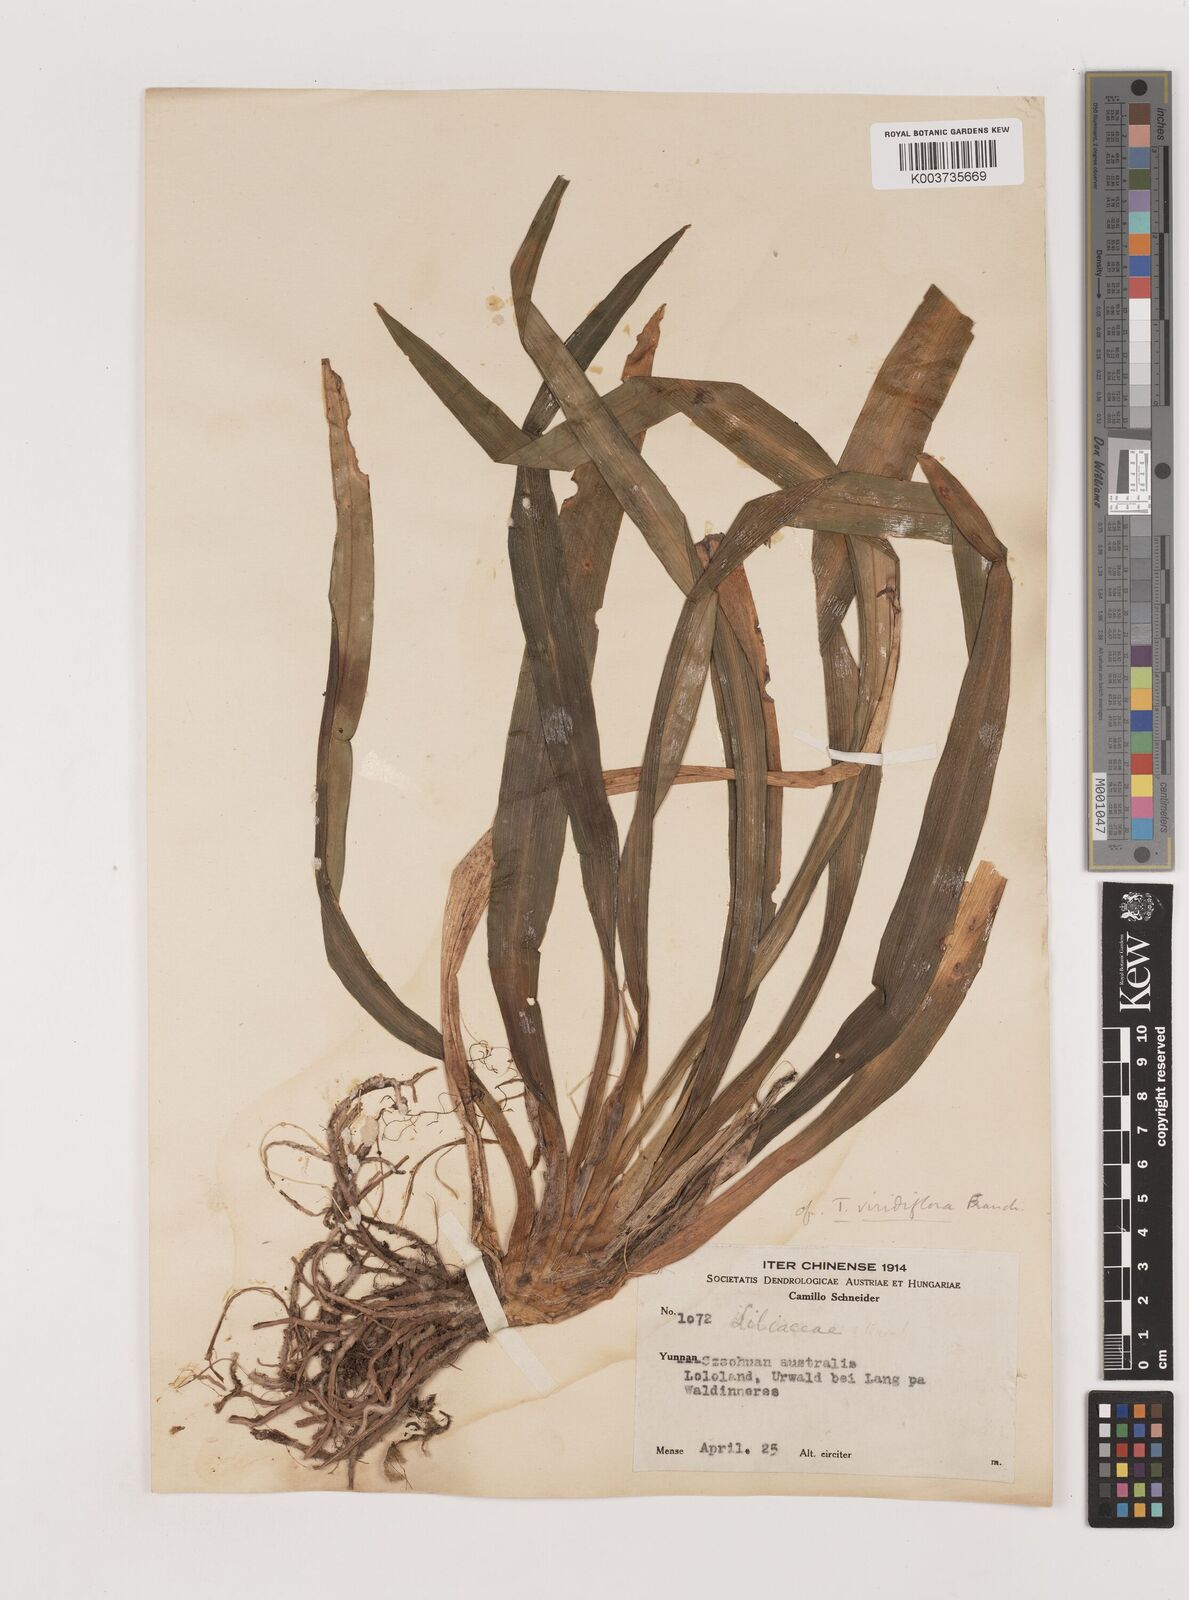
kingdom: Plantae
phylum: Tracheophyta
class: Liliopsida
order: Asparagales
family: Asparagaceae
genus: Rohdea
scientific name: Rohdea fargesii
